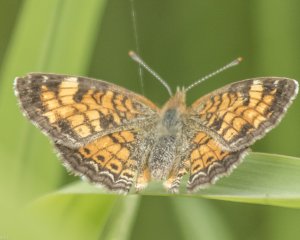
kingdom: Animalia
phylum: Arthropoda
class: Insecta
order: Lepidoptera
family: Nymphalidae
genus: Phyciodes
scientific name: Phyciodes tharos
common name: Northern Crescent
